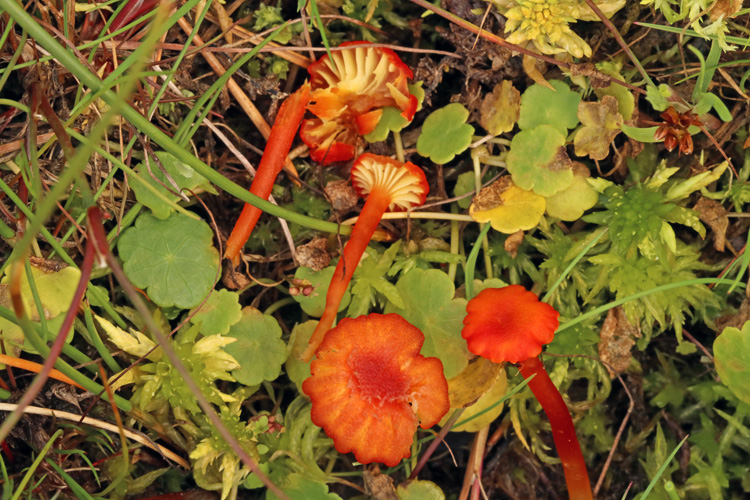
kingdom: Fungi
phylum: Basidiomycota
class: Agaricomycetes
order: Agaricales
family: Hygrophoraceae
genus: Hygrocybe
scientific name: Hygrocybe coccineocrenata
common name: tørvemos-vokshat
